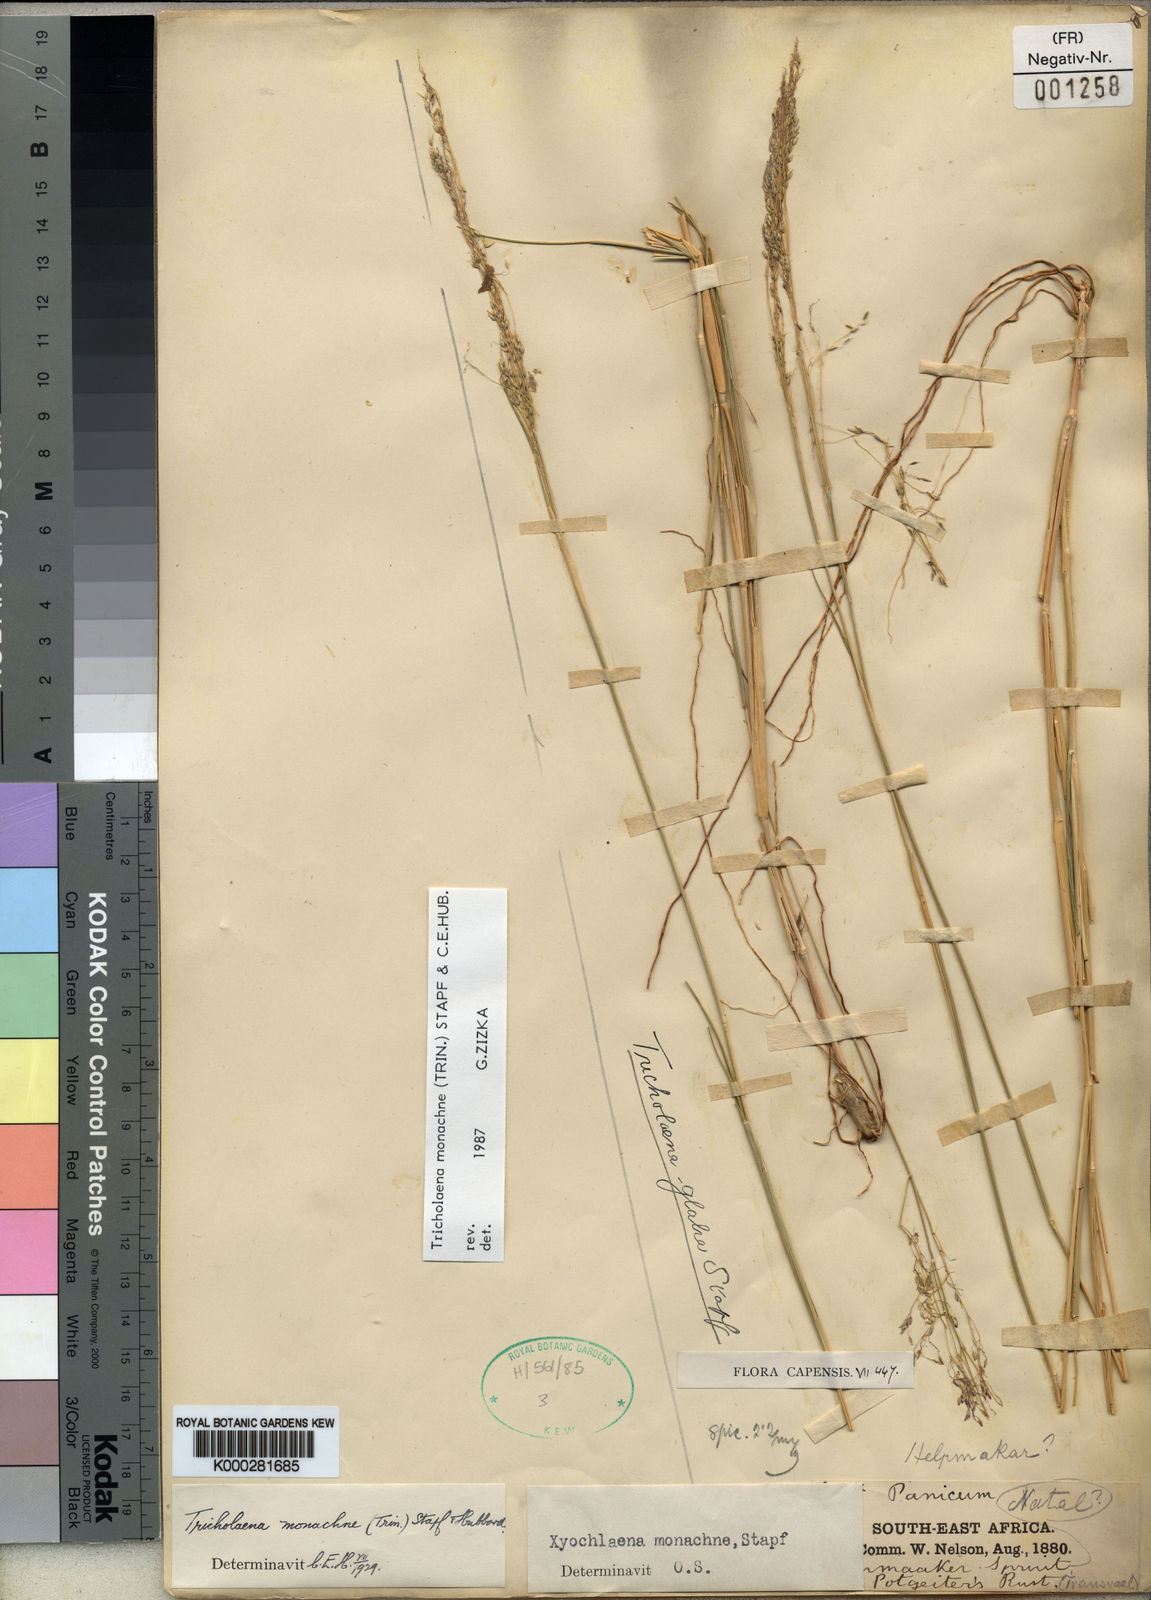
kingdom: Plantae
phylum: Tracheophyta
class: Liliopsida
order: Poales
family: Poaceae
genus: Tricholaena
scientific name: Tricholaena
